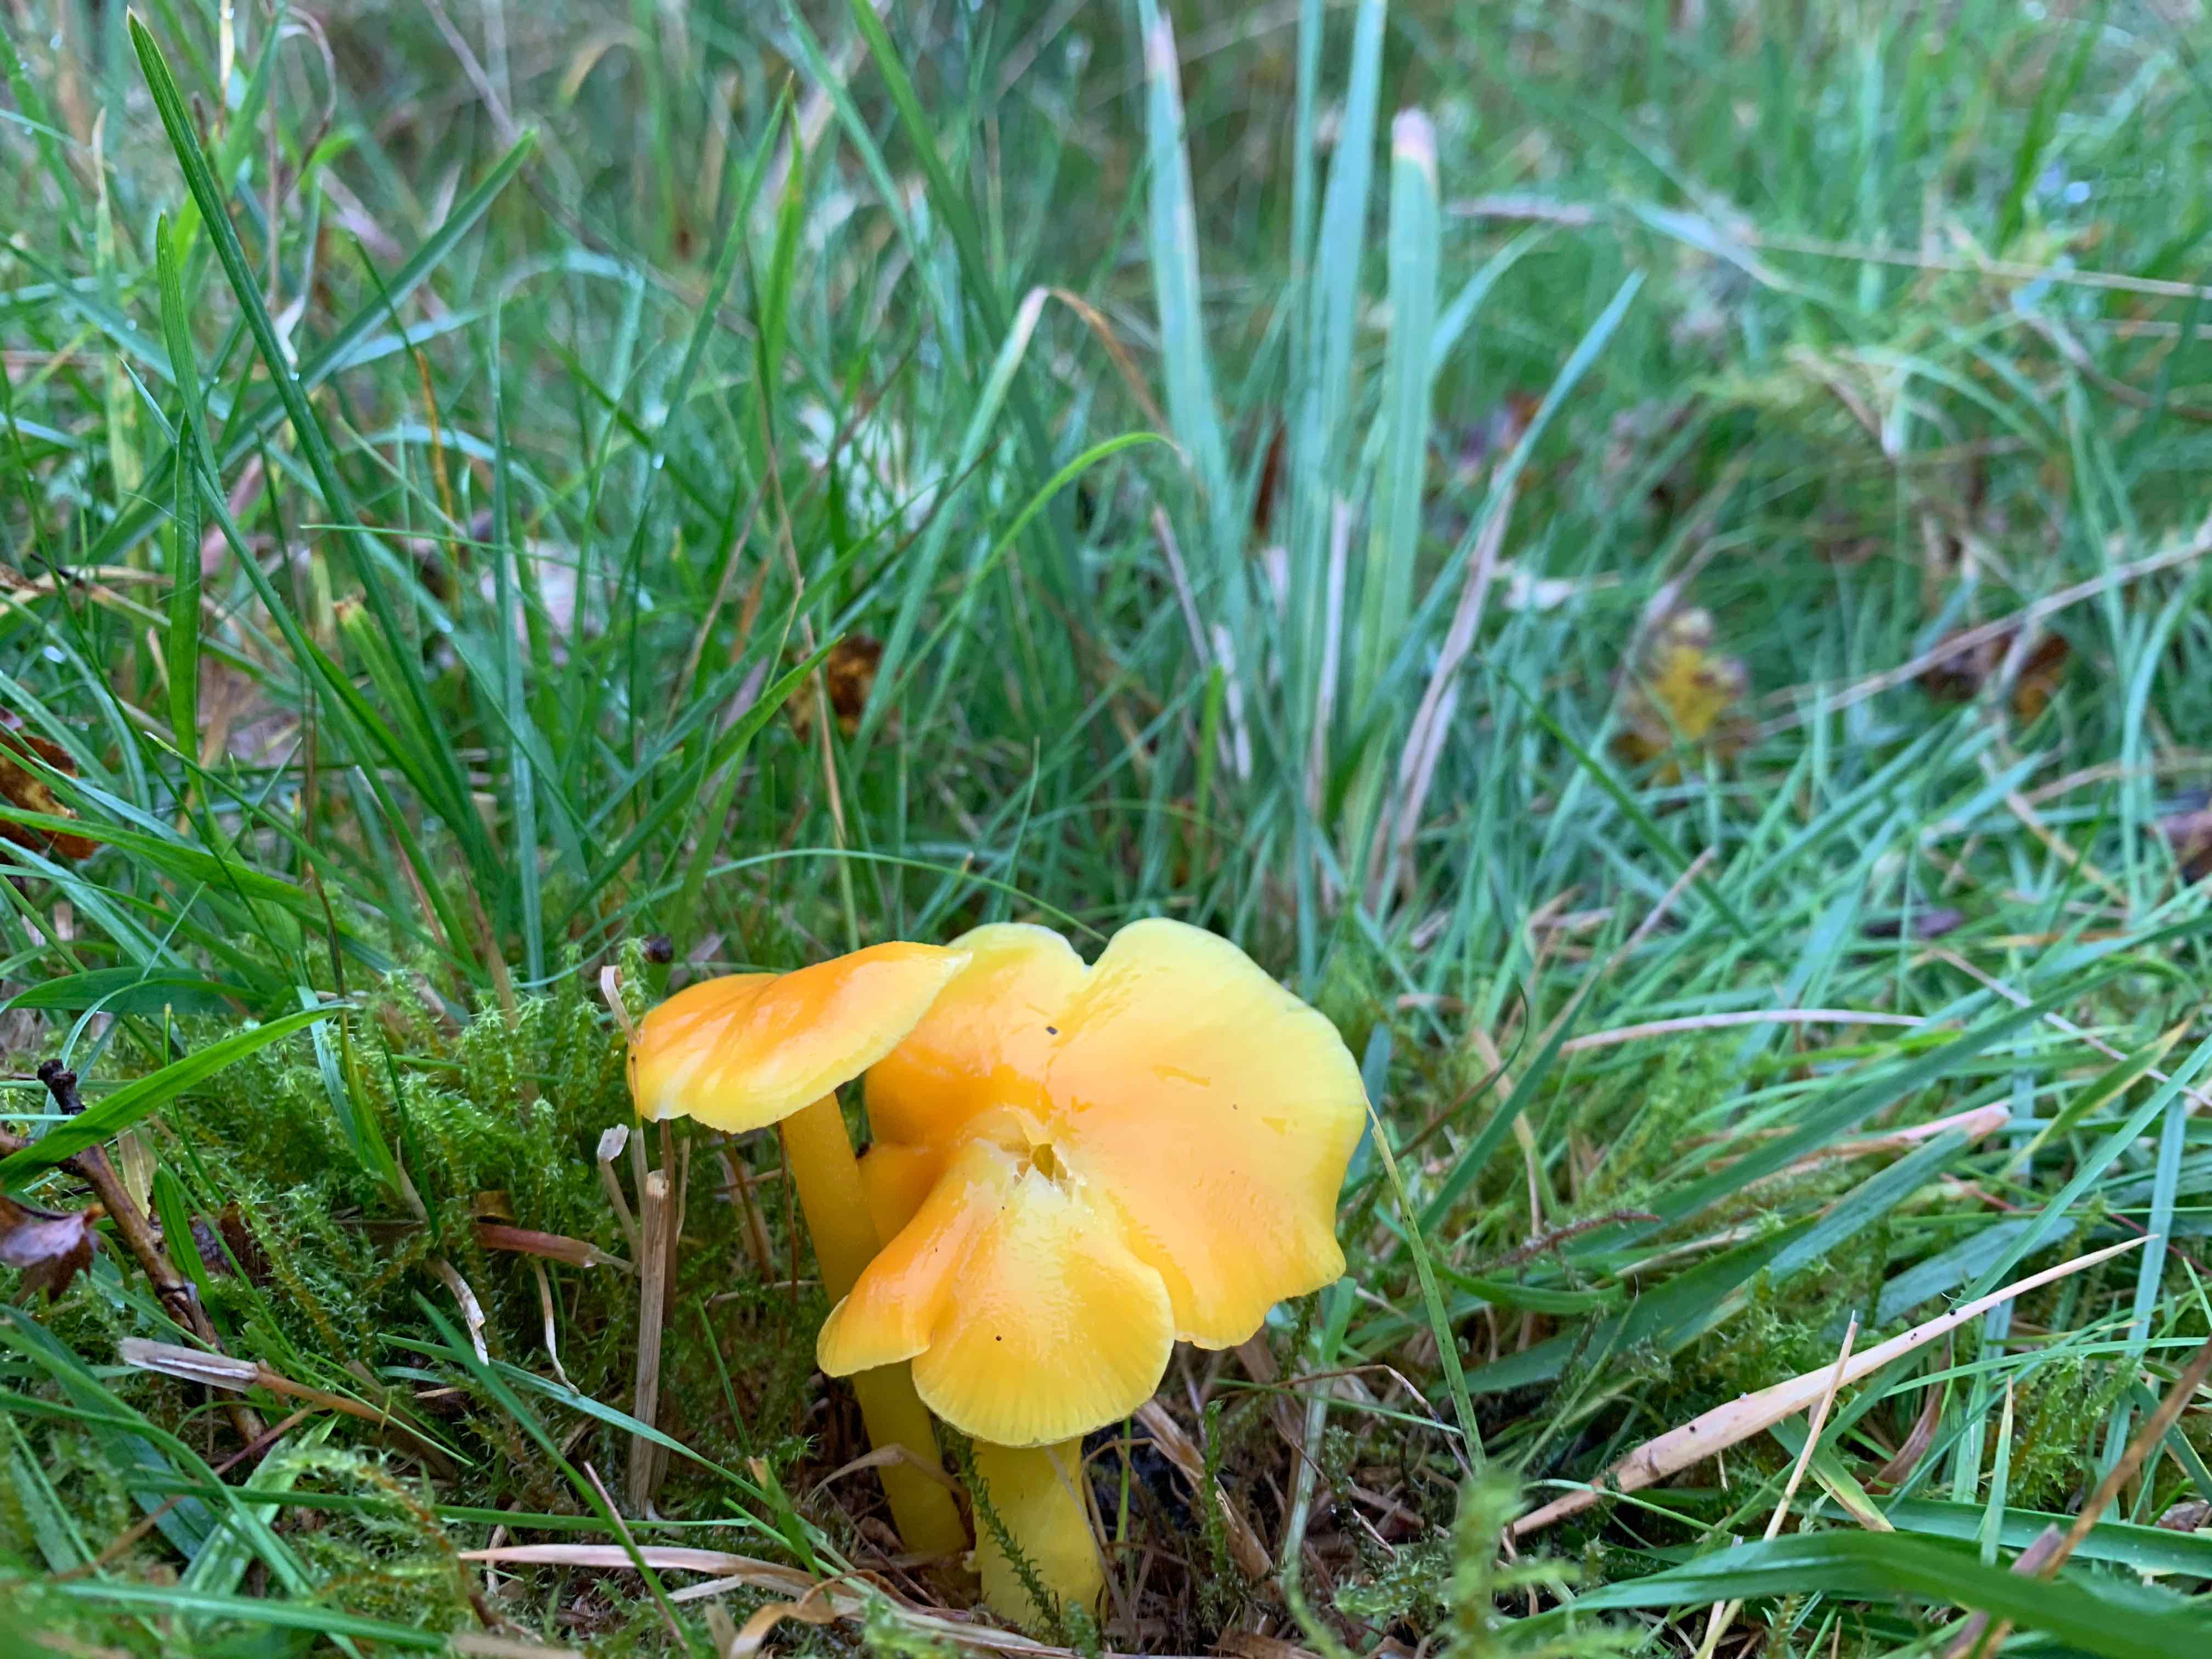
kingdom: Fungi
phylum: Basidiomycota
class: Agaricomycetes
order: Agaricales
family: Hygrophoraceae
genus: Hygrocybe
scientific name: Hygrocybe chlorophana
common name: gul vokshat
